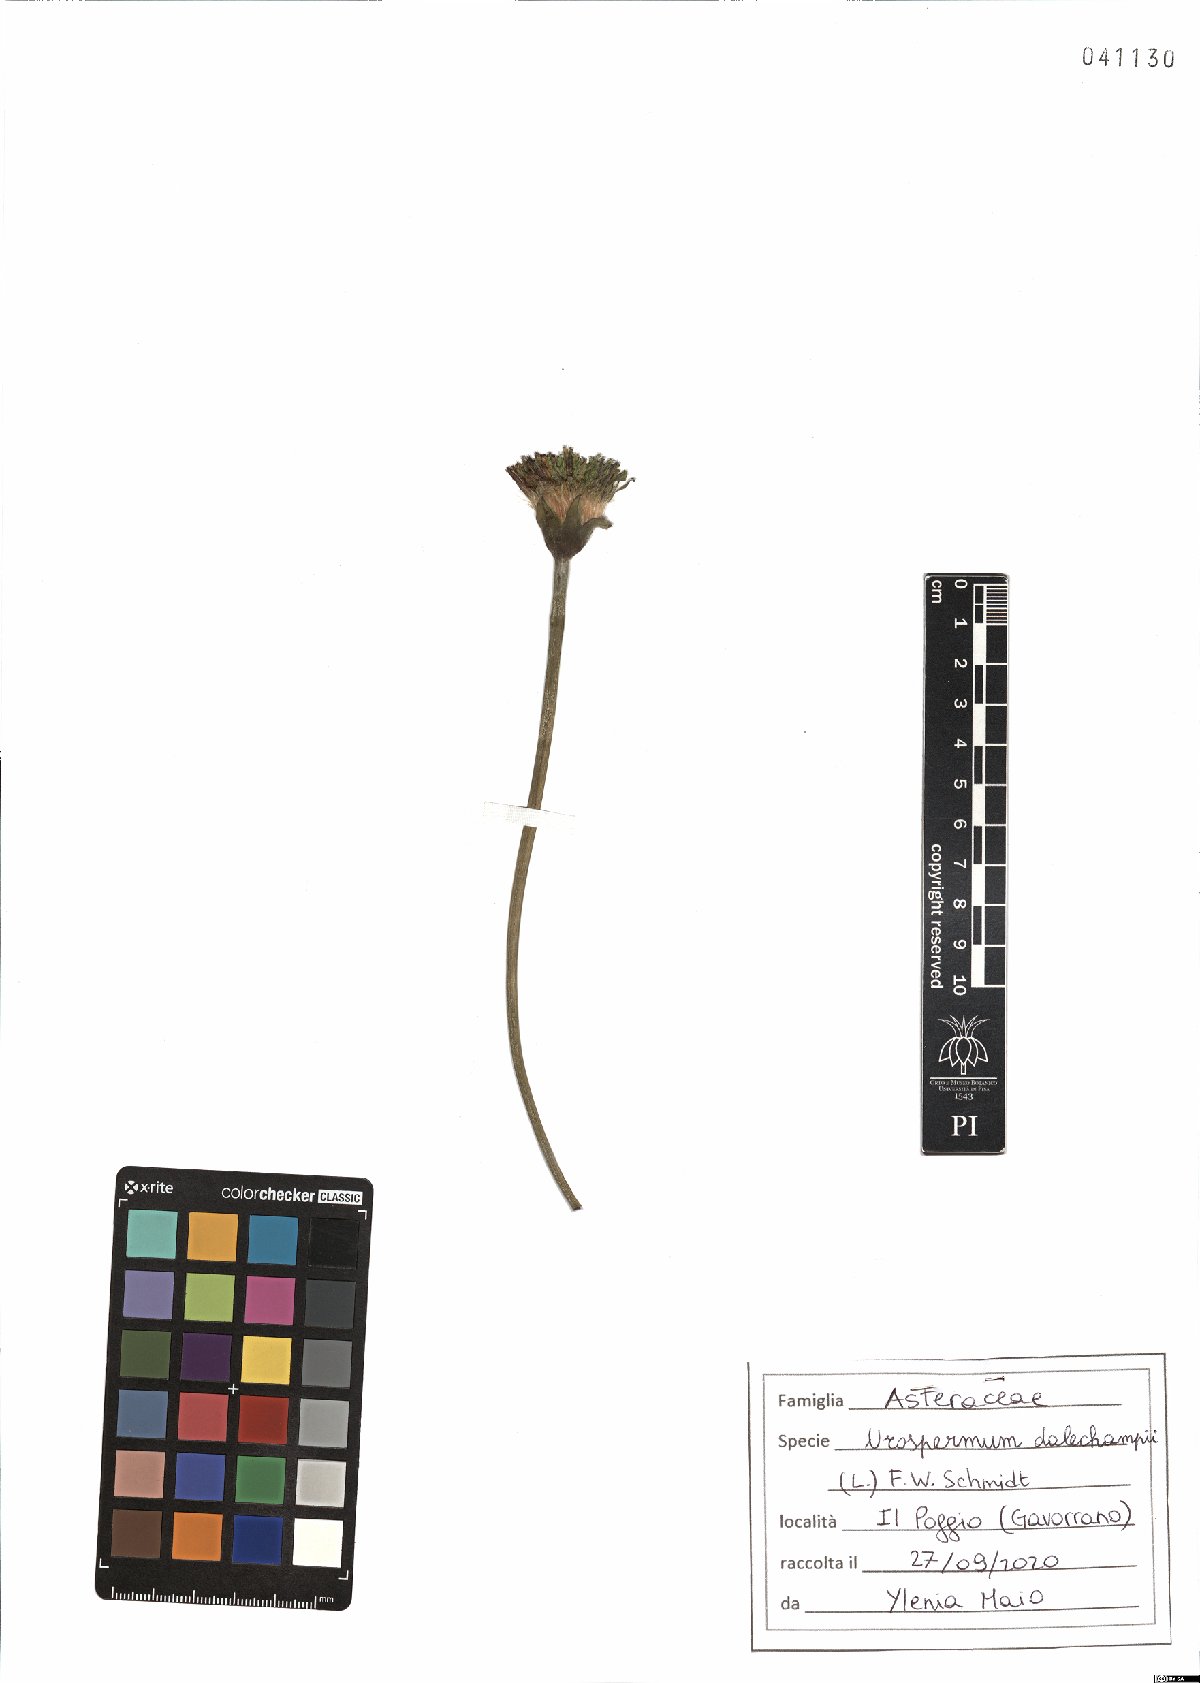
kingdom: Plantae
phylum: Tracheophyta
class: Magnoliopsida
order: Asterales
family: Asteraceae
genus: Urospermum
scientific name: Urospermum dalechampii
